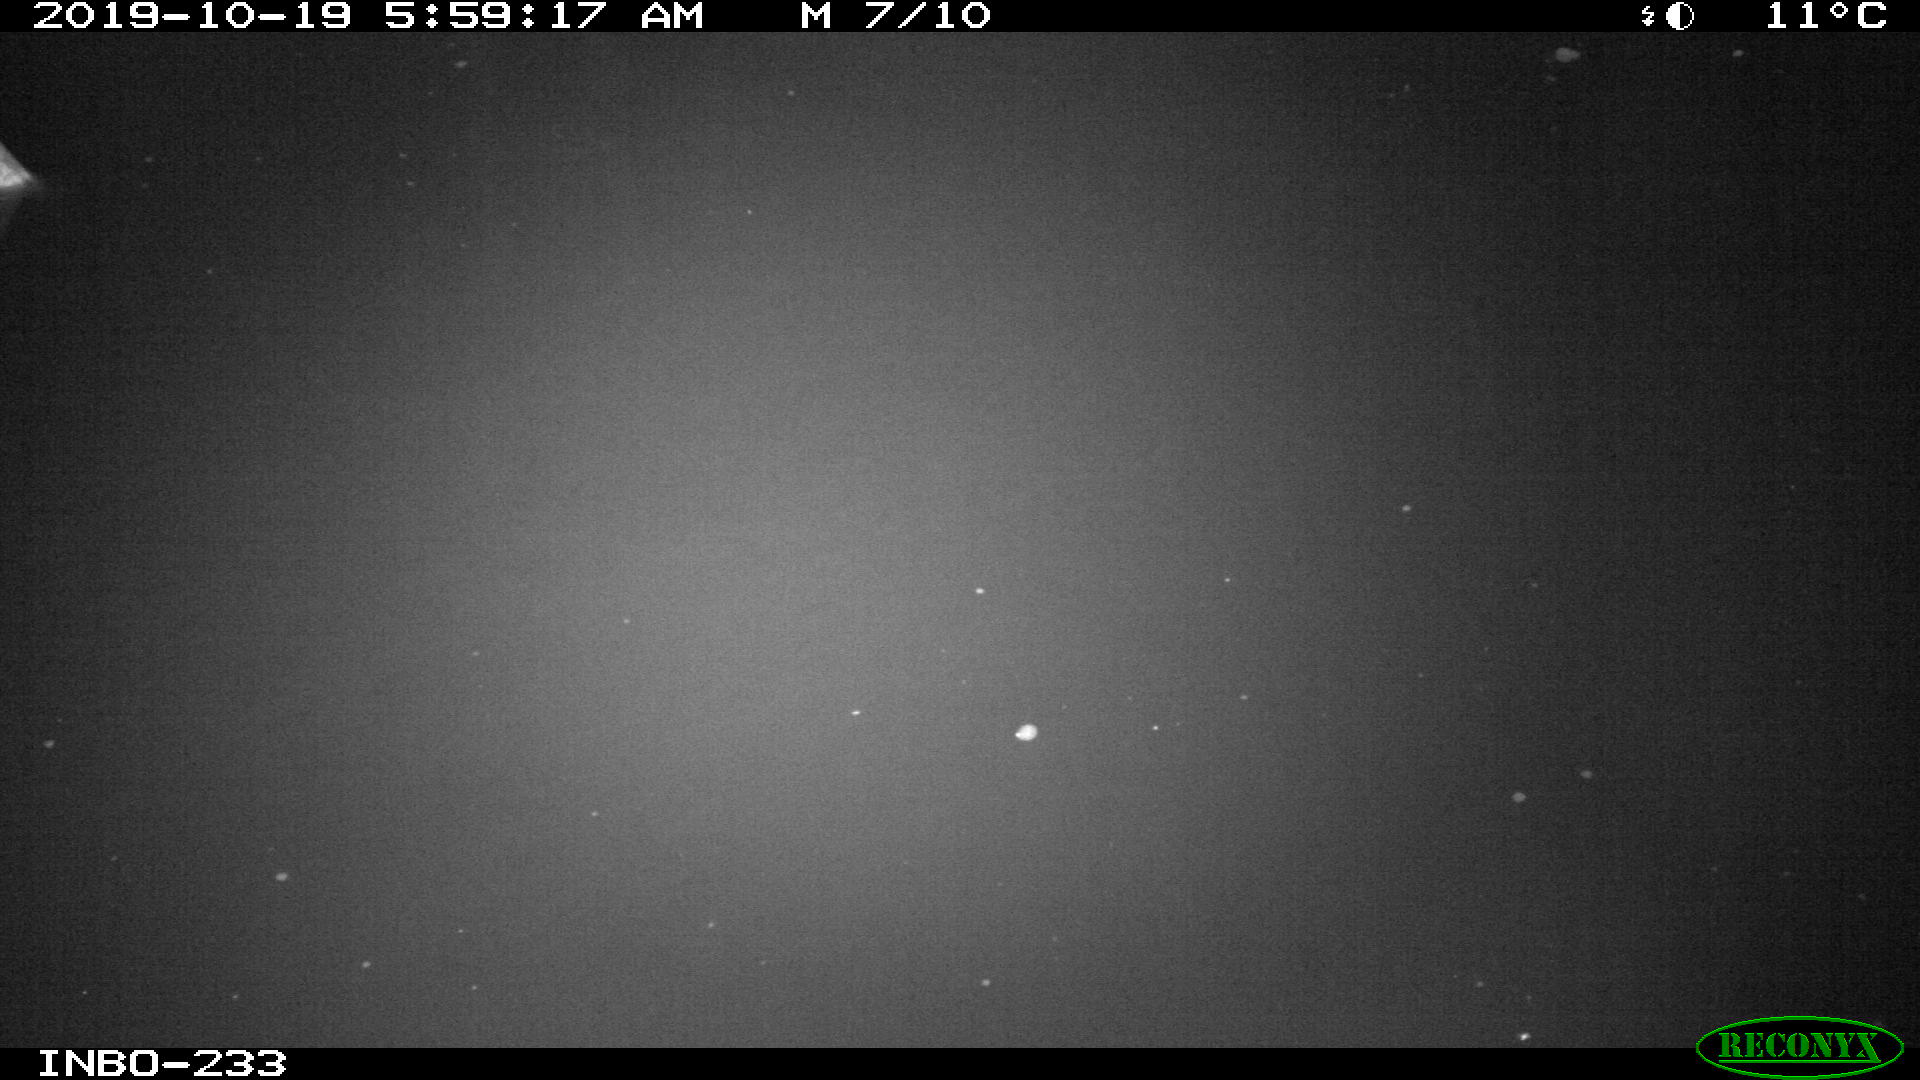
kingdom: Animalia
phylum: Chordata
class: Aves
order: Anseriformes
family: Anatidae
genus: Anas
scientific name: Anas platyrhynchos
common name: Mallard
